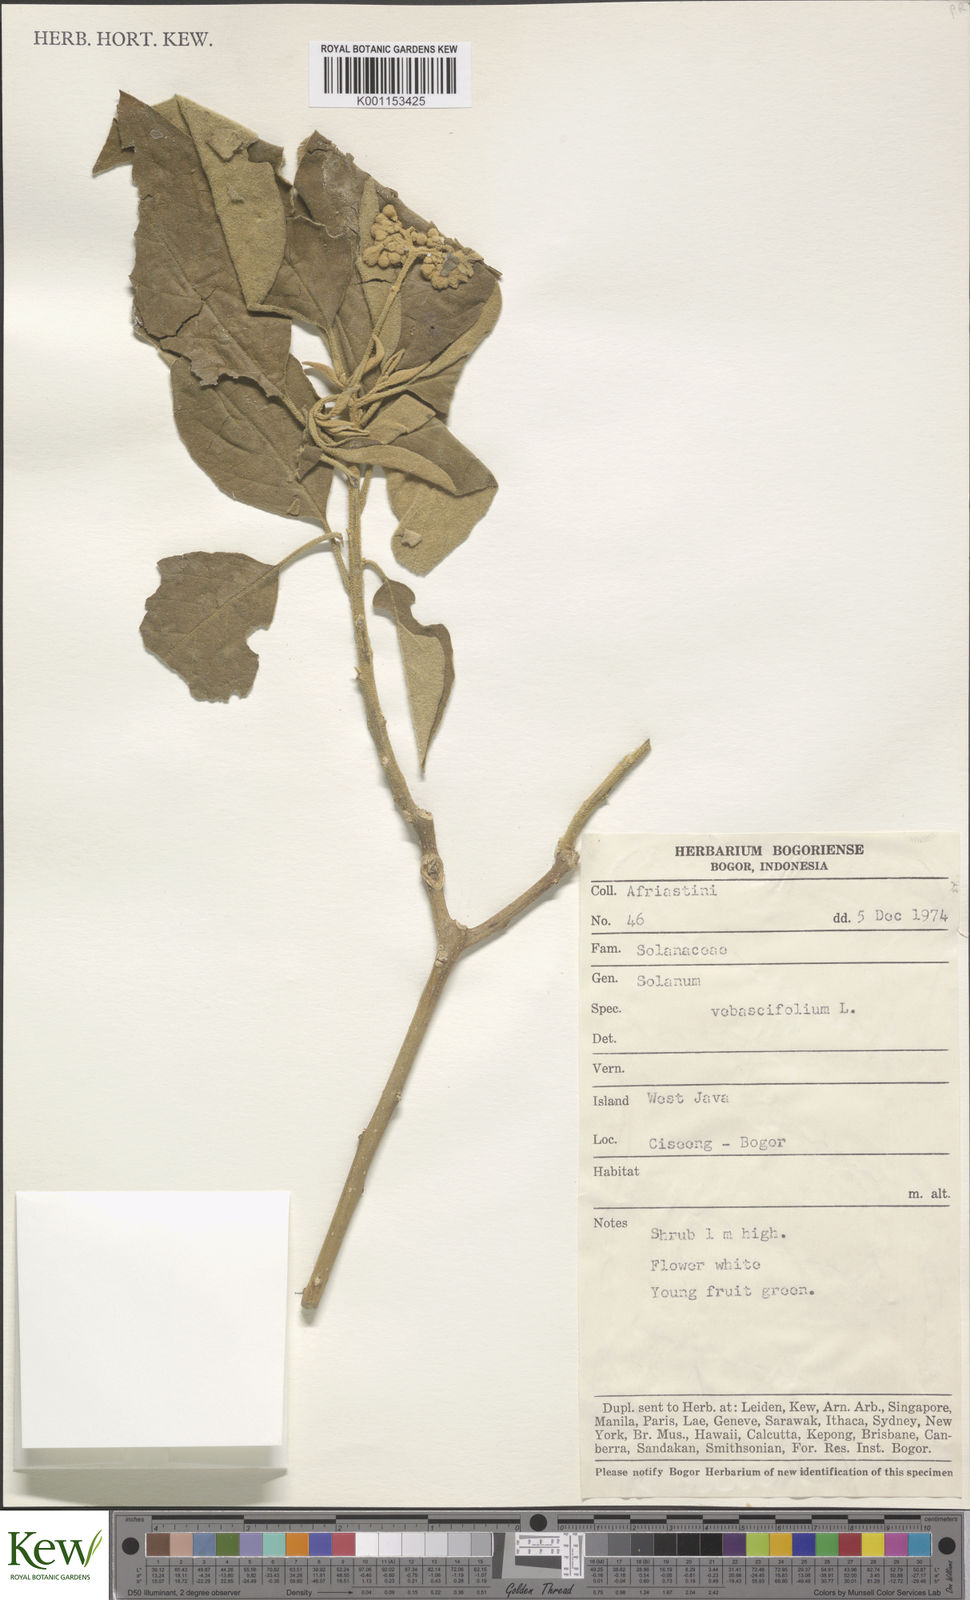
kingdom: Plantae
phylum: Tracheophyta
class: Magnoliopsida
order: Solanales
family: Solanaceae
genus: Solanum
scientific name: Solanum donianum
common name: Mullein nightshade
